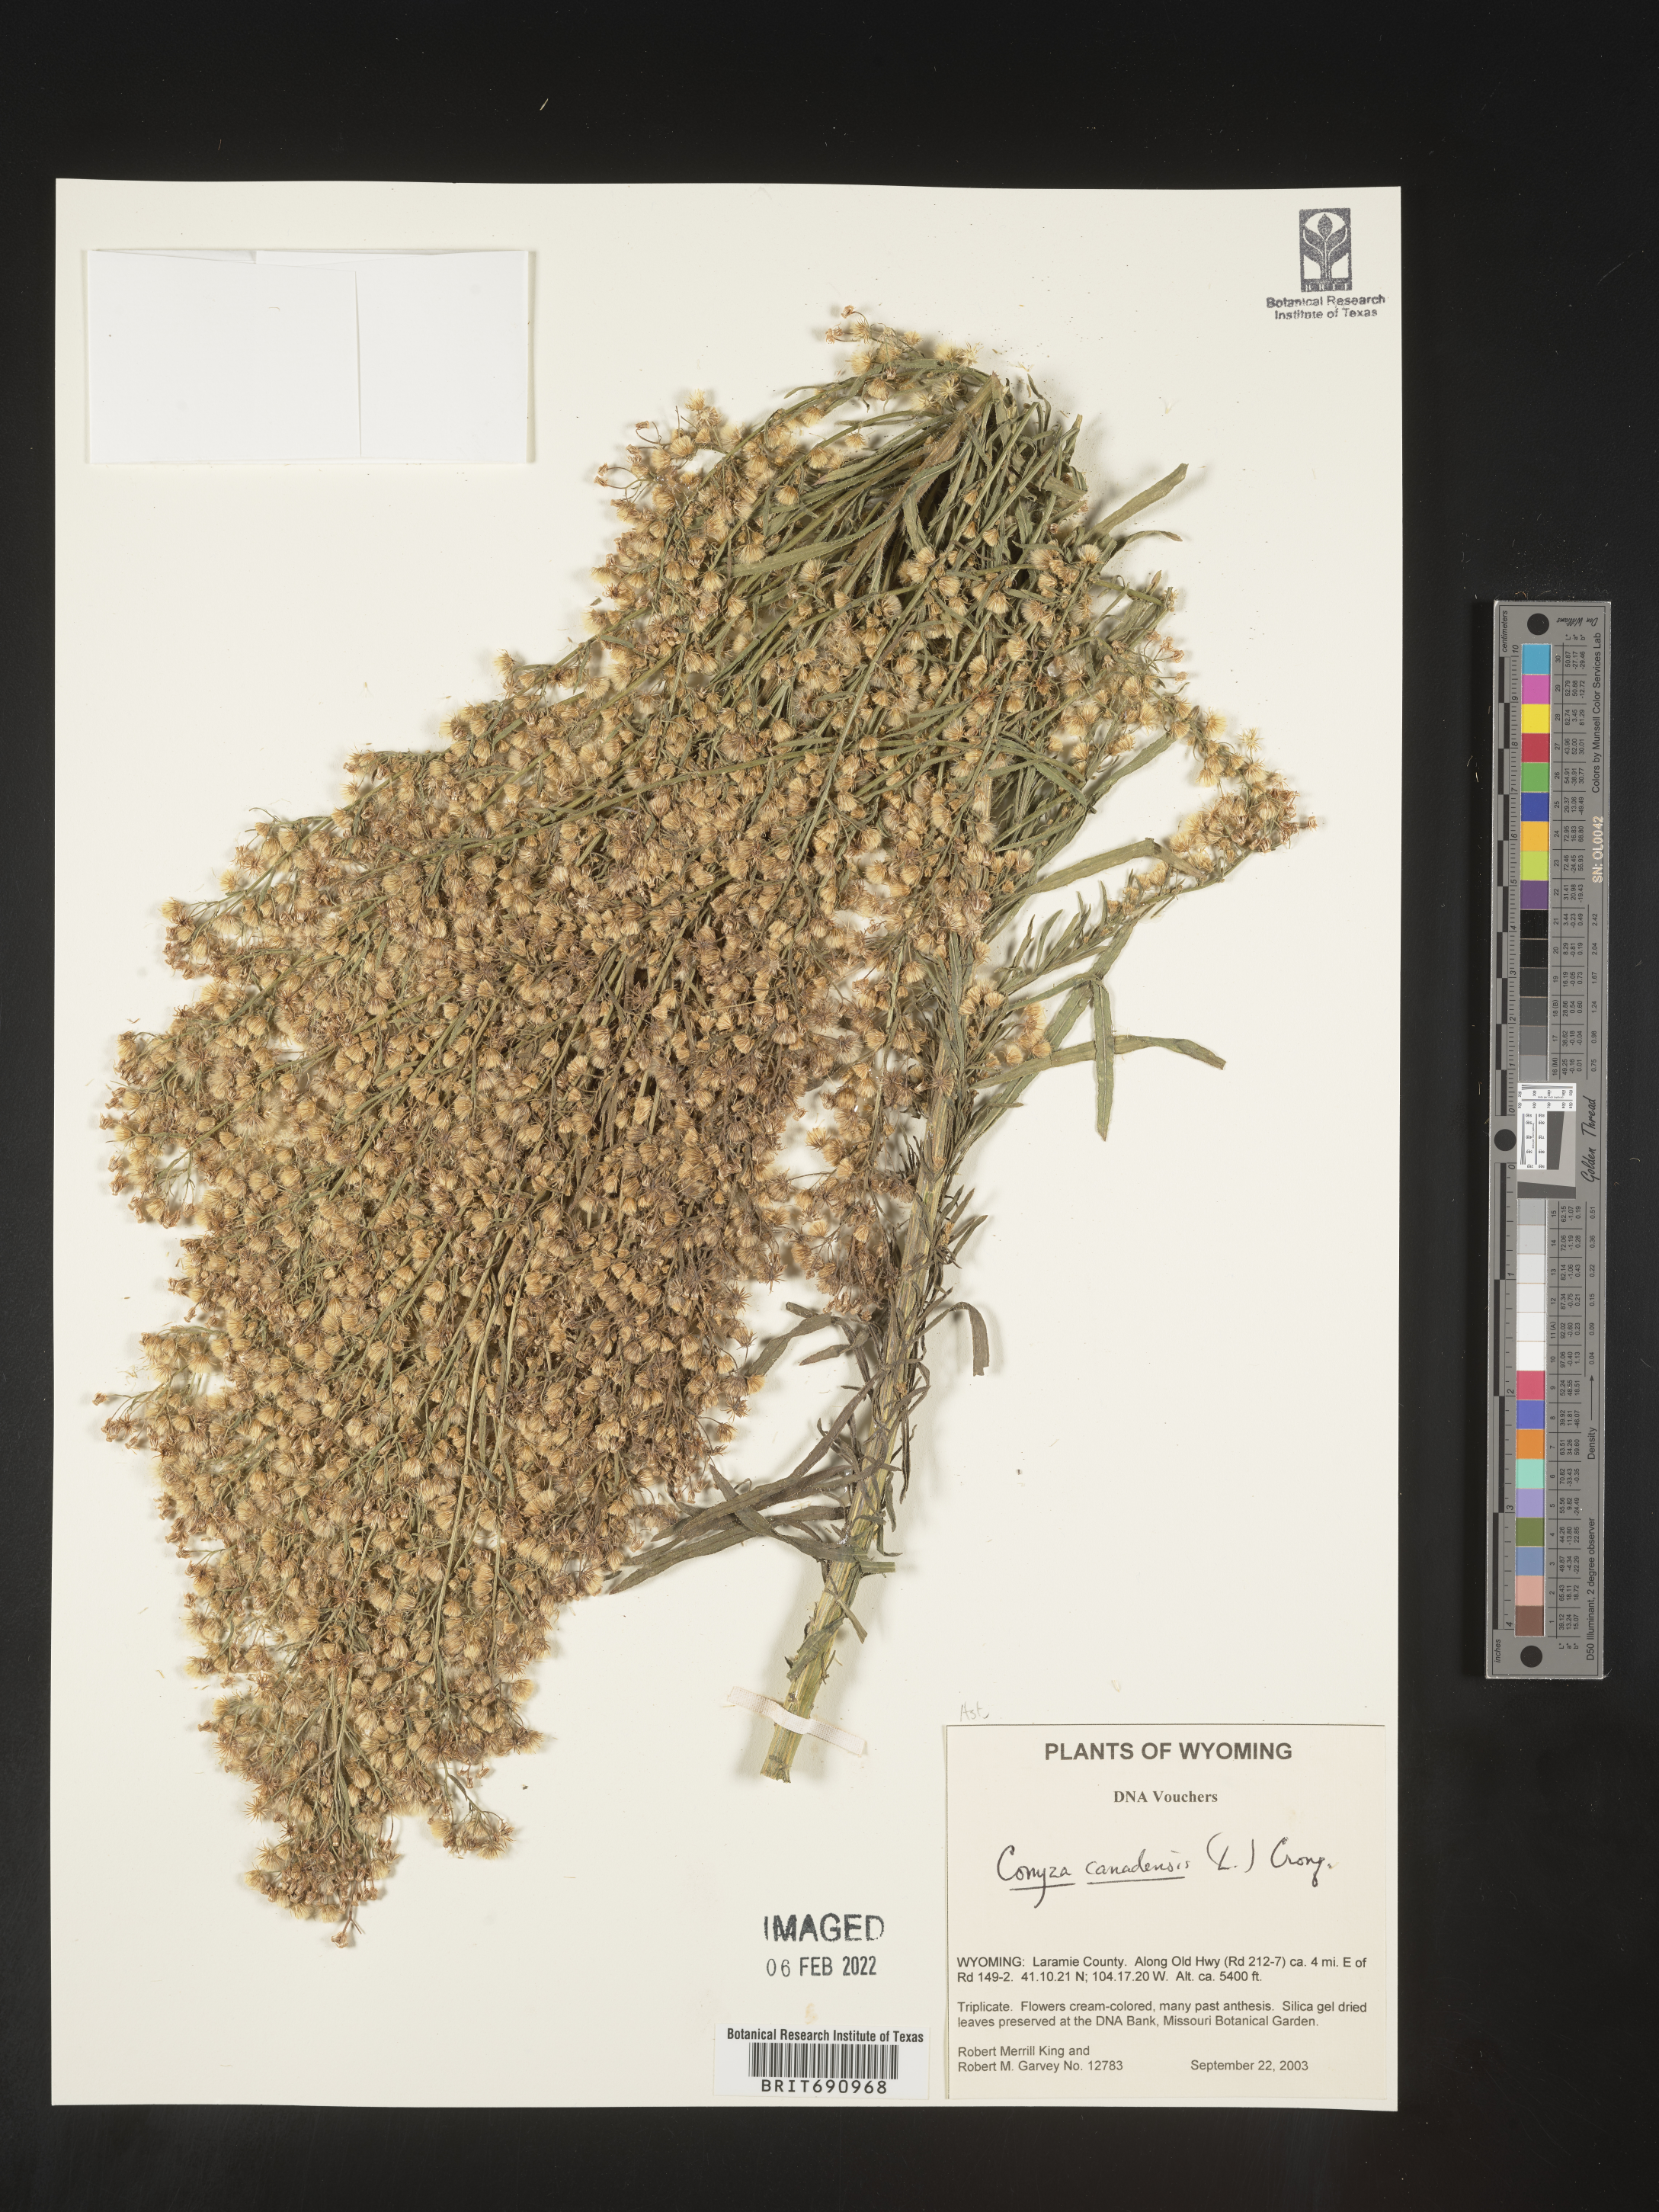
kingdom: Plantae
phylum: Tracheophyta
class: Magnoliopsida
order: Asterales
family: Asteraceae
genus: Erigeron
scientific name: Erigeron canadensis
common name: Canadian fleabane
